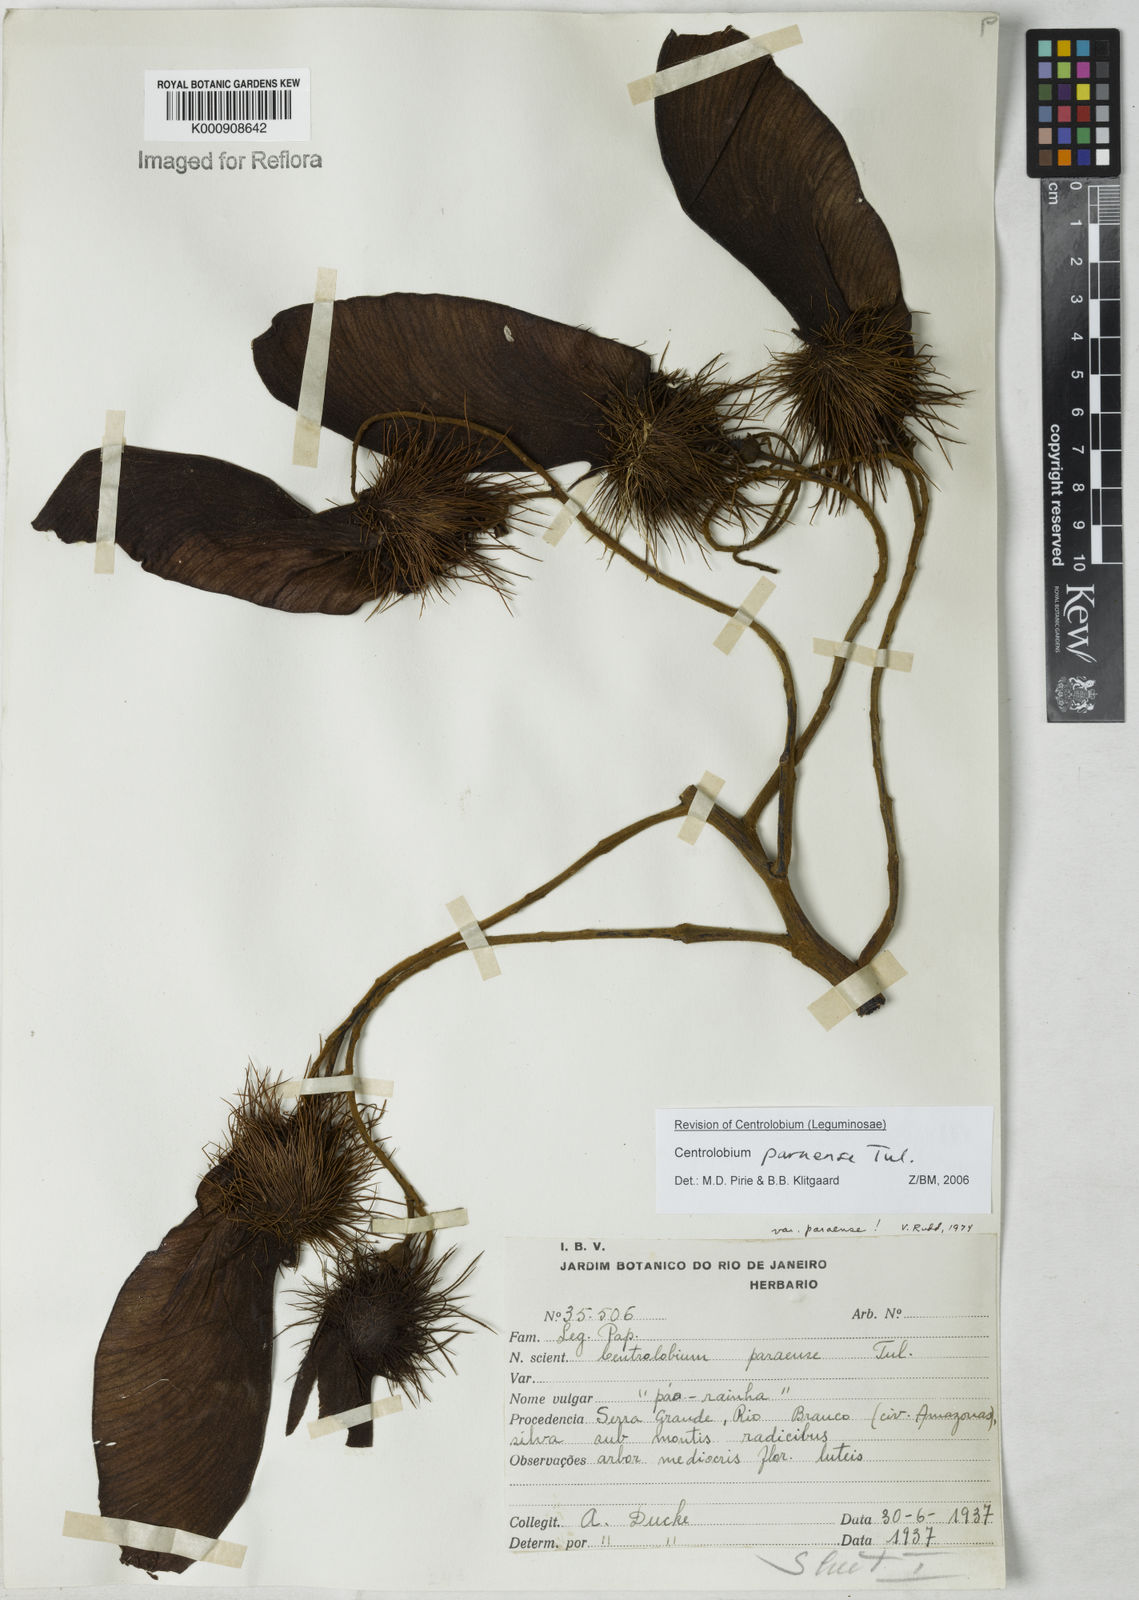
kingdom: Plantae
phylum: Tracheophyta
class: Magnoliopsida
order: Fabales
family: Fabaceae
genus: Centrolobium
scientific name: Centrolobium paraense
